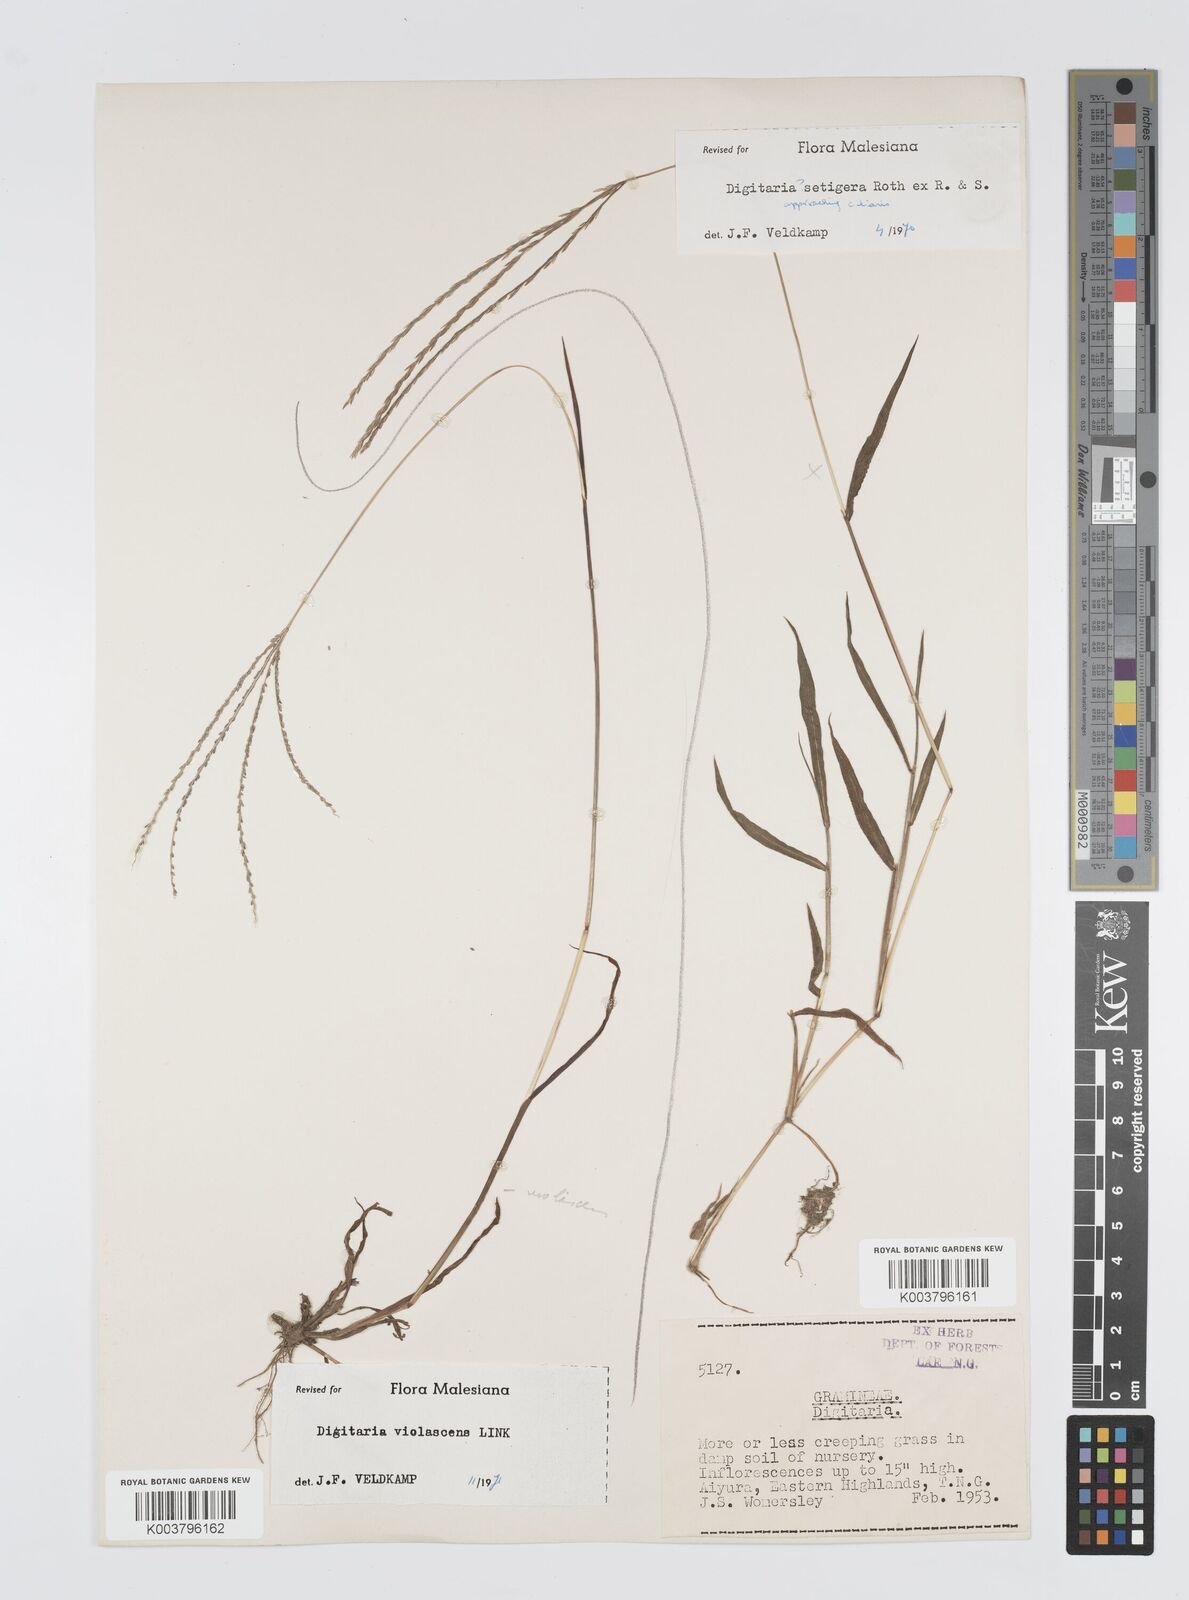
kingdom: Plantae
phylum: Tracheophyta
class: Liliopsida
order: Poales
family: Poaceae
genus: Digitaria
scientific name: Digitaria violascens
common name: Violet crabgrass
